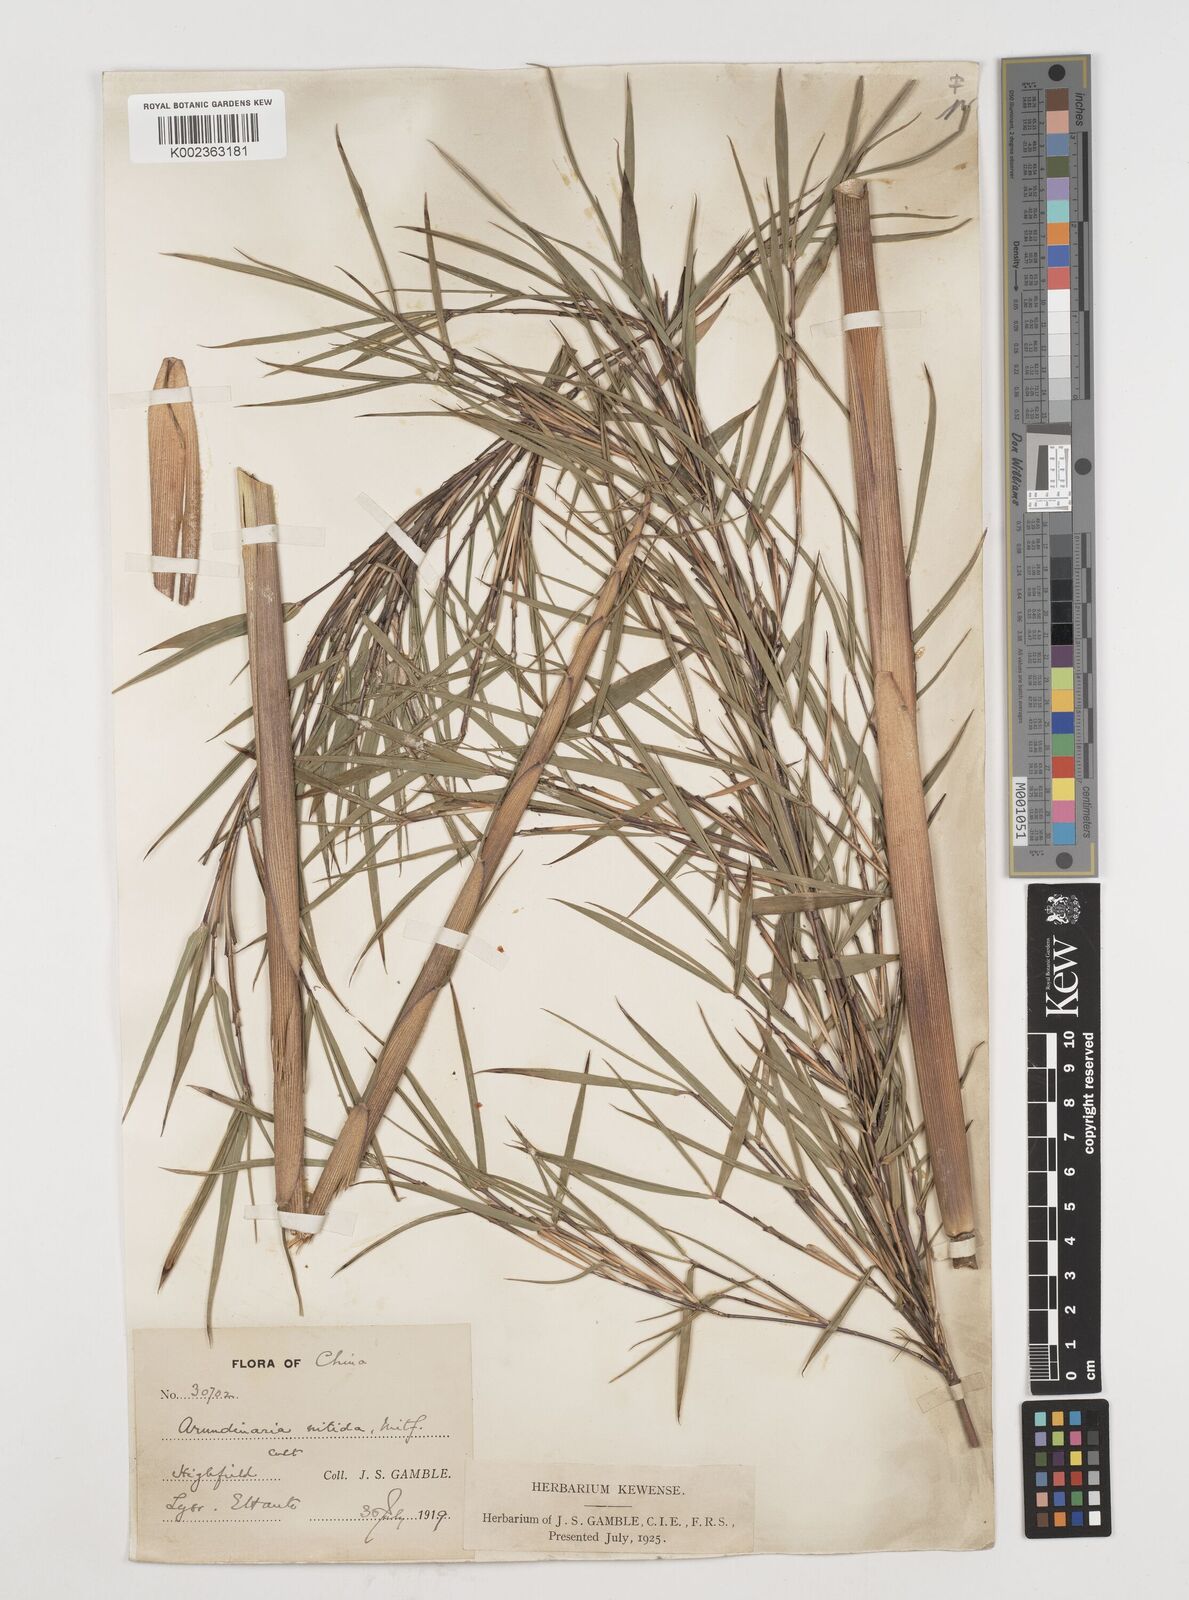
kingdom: Plantae
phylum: Tracheophyta
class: Liliopsida
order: Poales
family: Poaceae
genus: Fargesia
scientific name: Fargesia nitida ex
